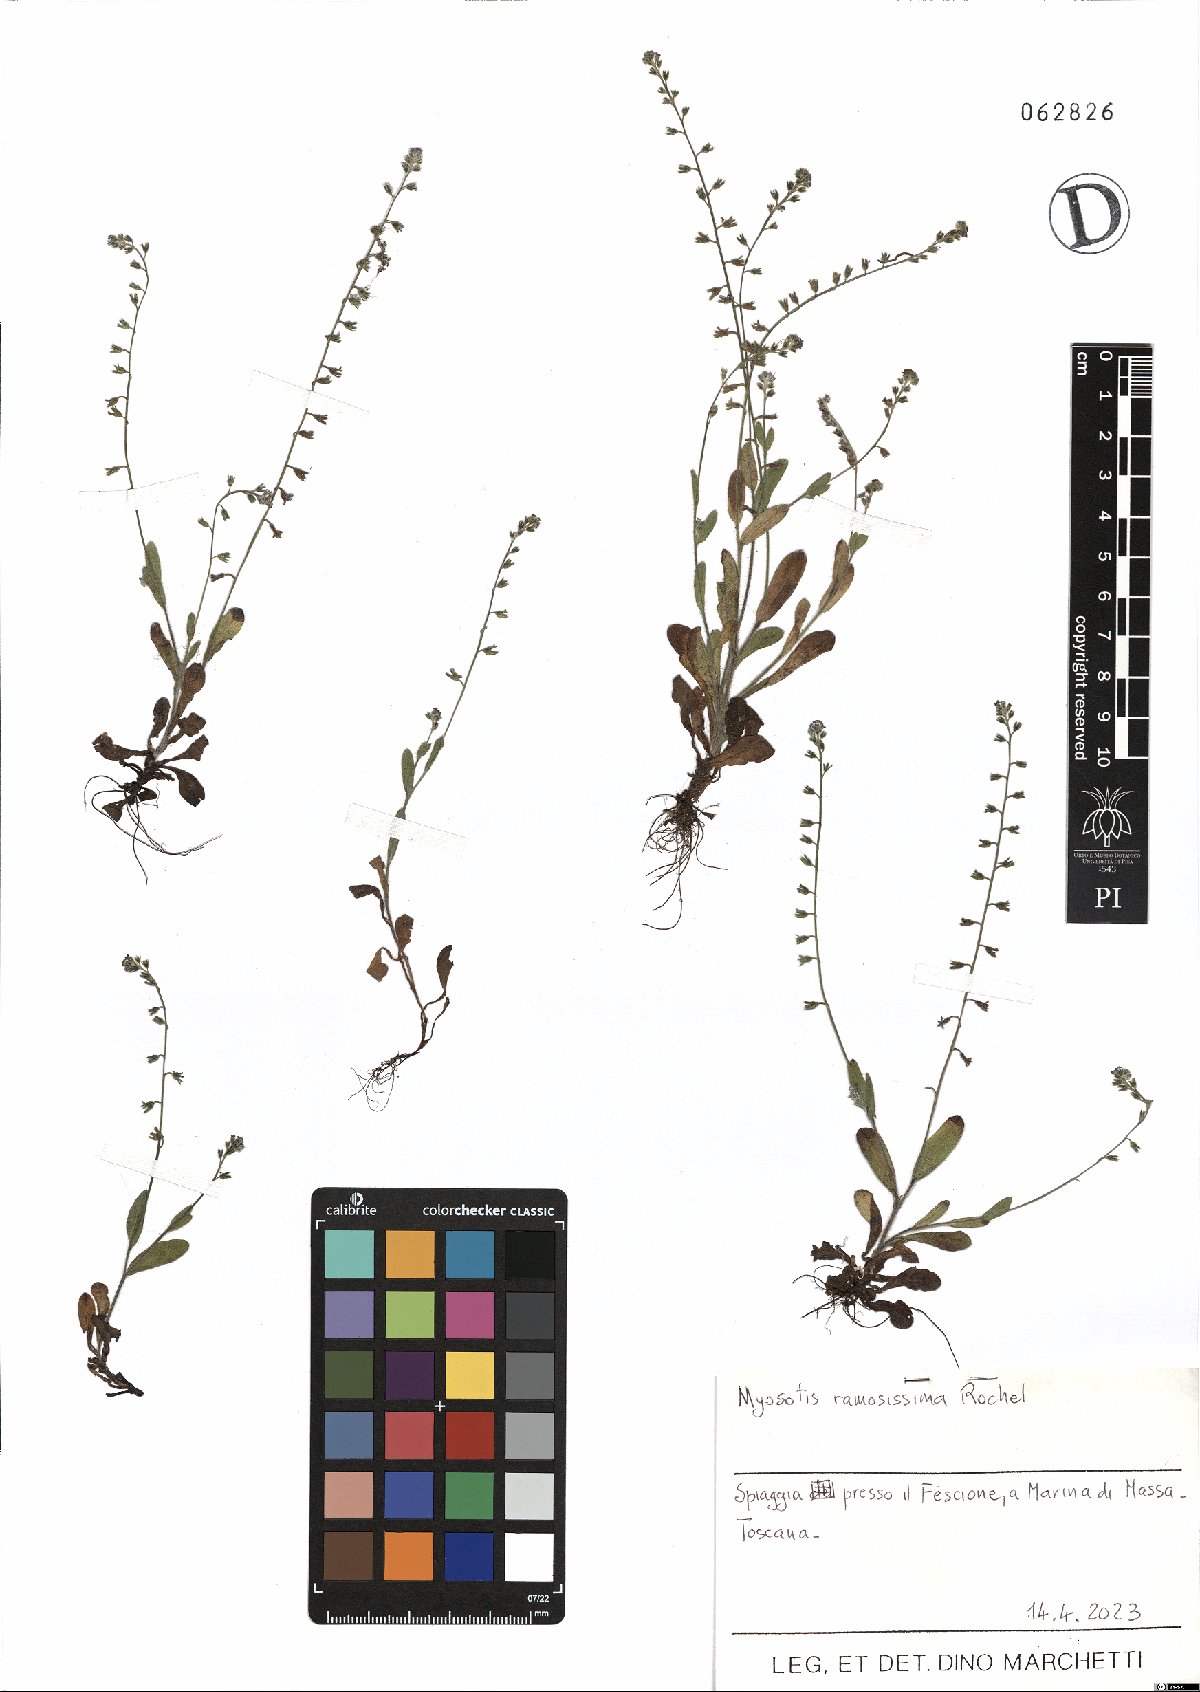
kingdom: Plantae
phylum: Tracheophyta
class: Magnoliopsida
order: Boraginales
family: Boraginaceae
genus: Myosotis
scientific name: Myosotis ramosissima
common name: Early forget-me-not
